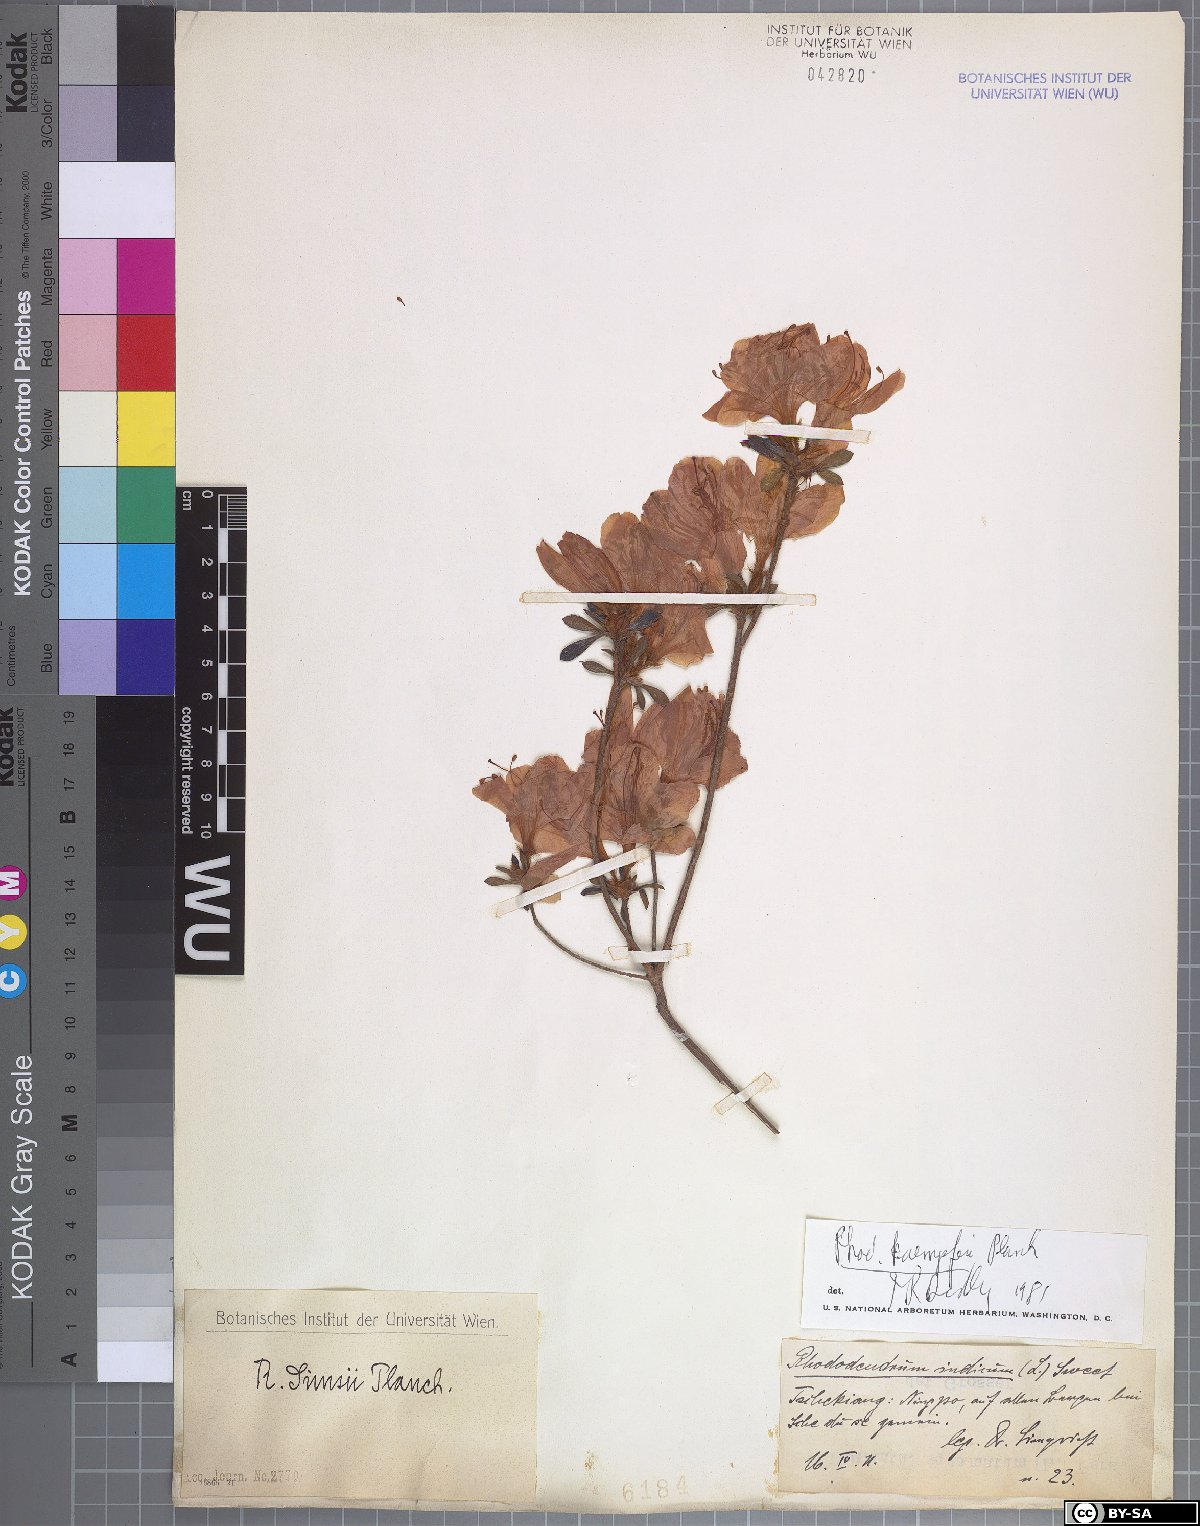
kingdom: Plantae
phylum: Tracheophyta
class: Magnoliopsida
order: Ericales
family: Ericaceae
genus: Rhododendron
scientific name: Rhododendron kaempferi
